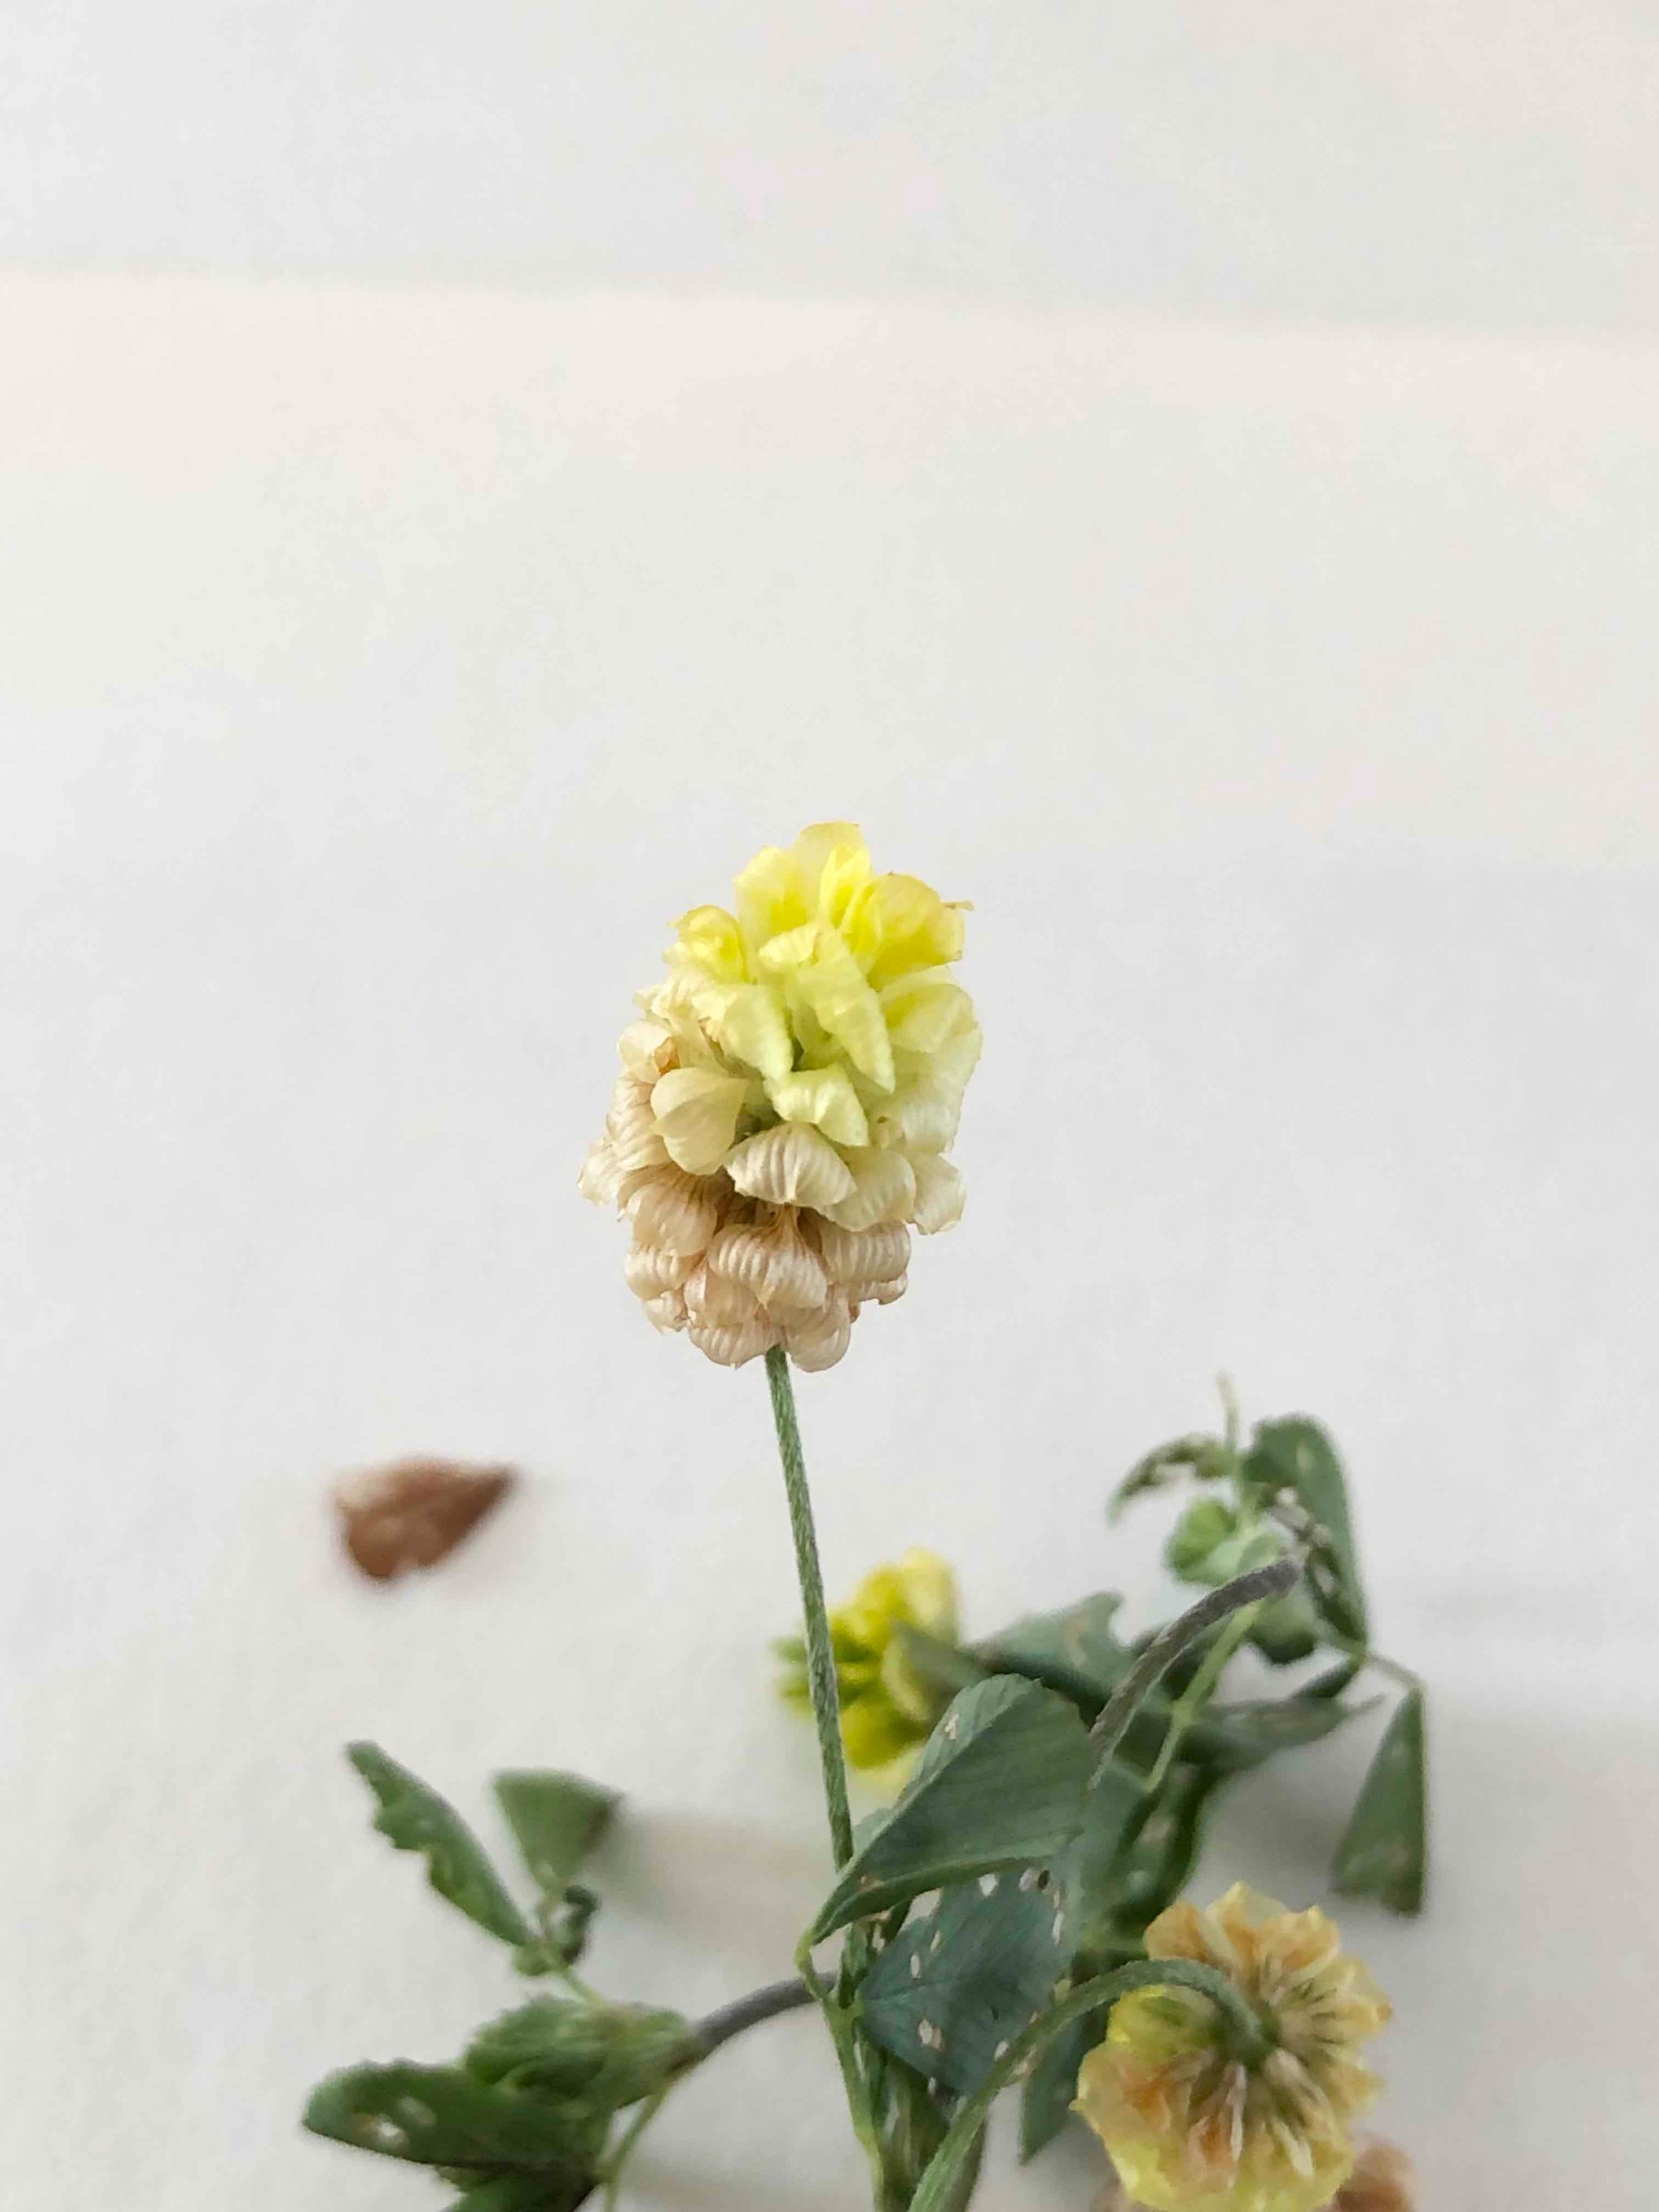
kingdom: Plantae
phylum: Tracheophyta
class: Magnoliopsida
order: Fabales
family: Fabaceae
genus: Trifolium
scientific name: Trifolium campestre
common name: Gul kløver
